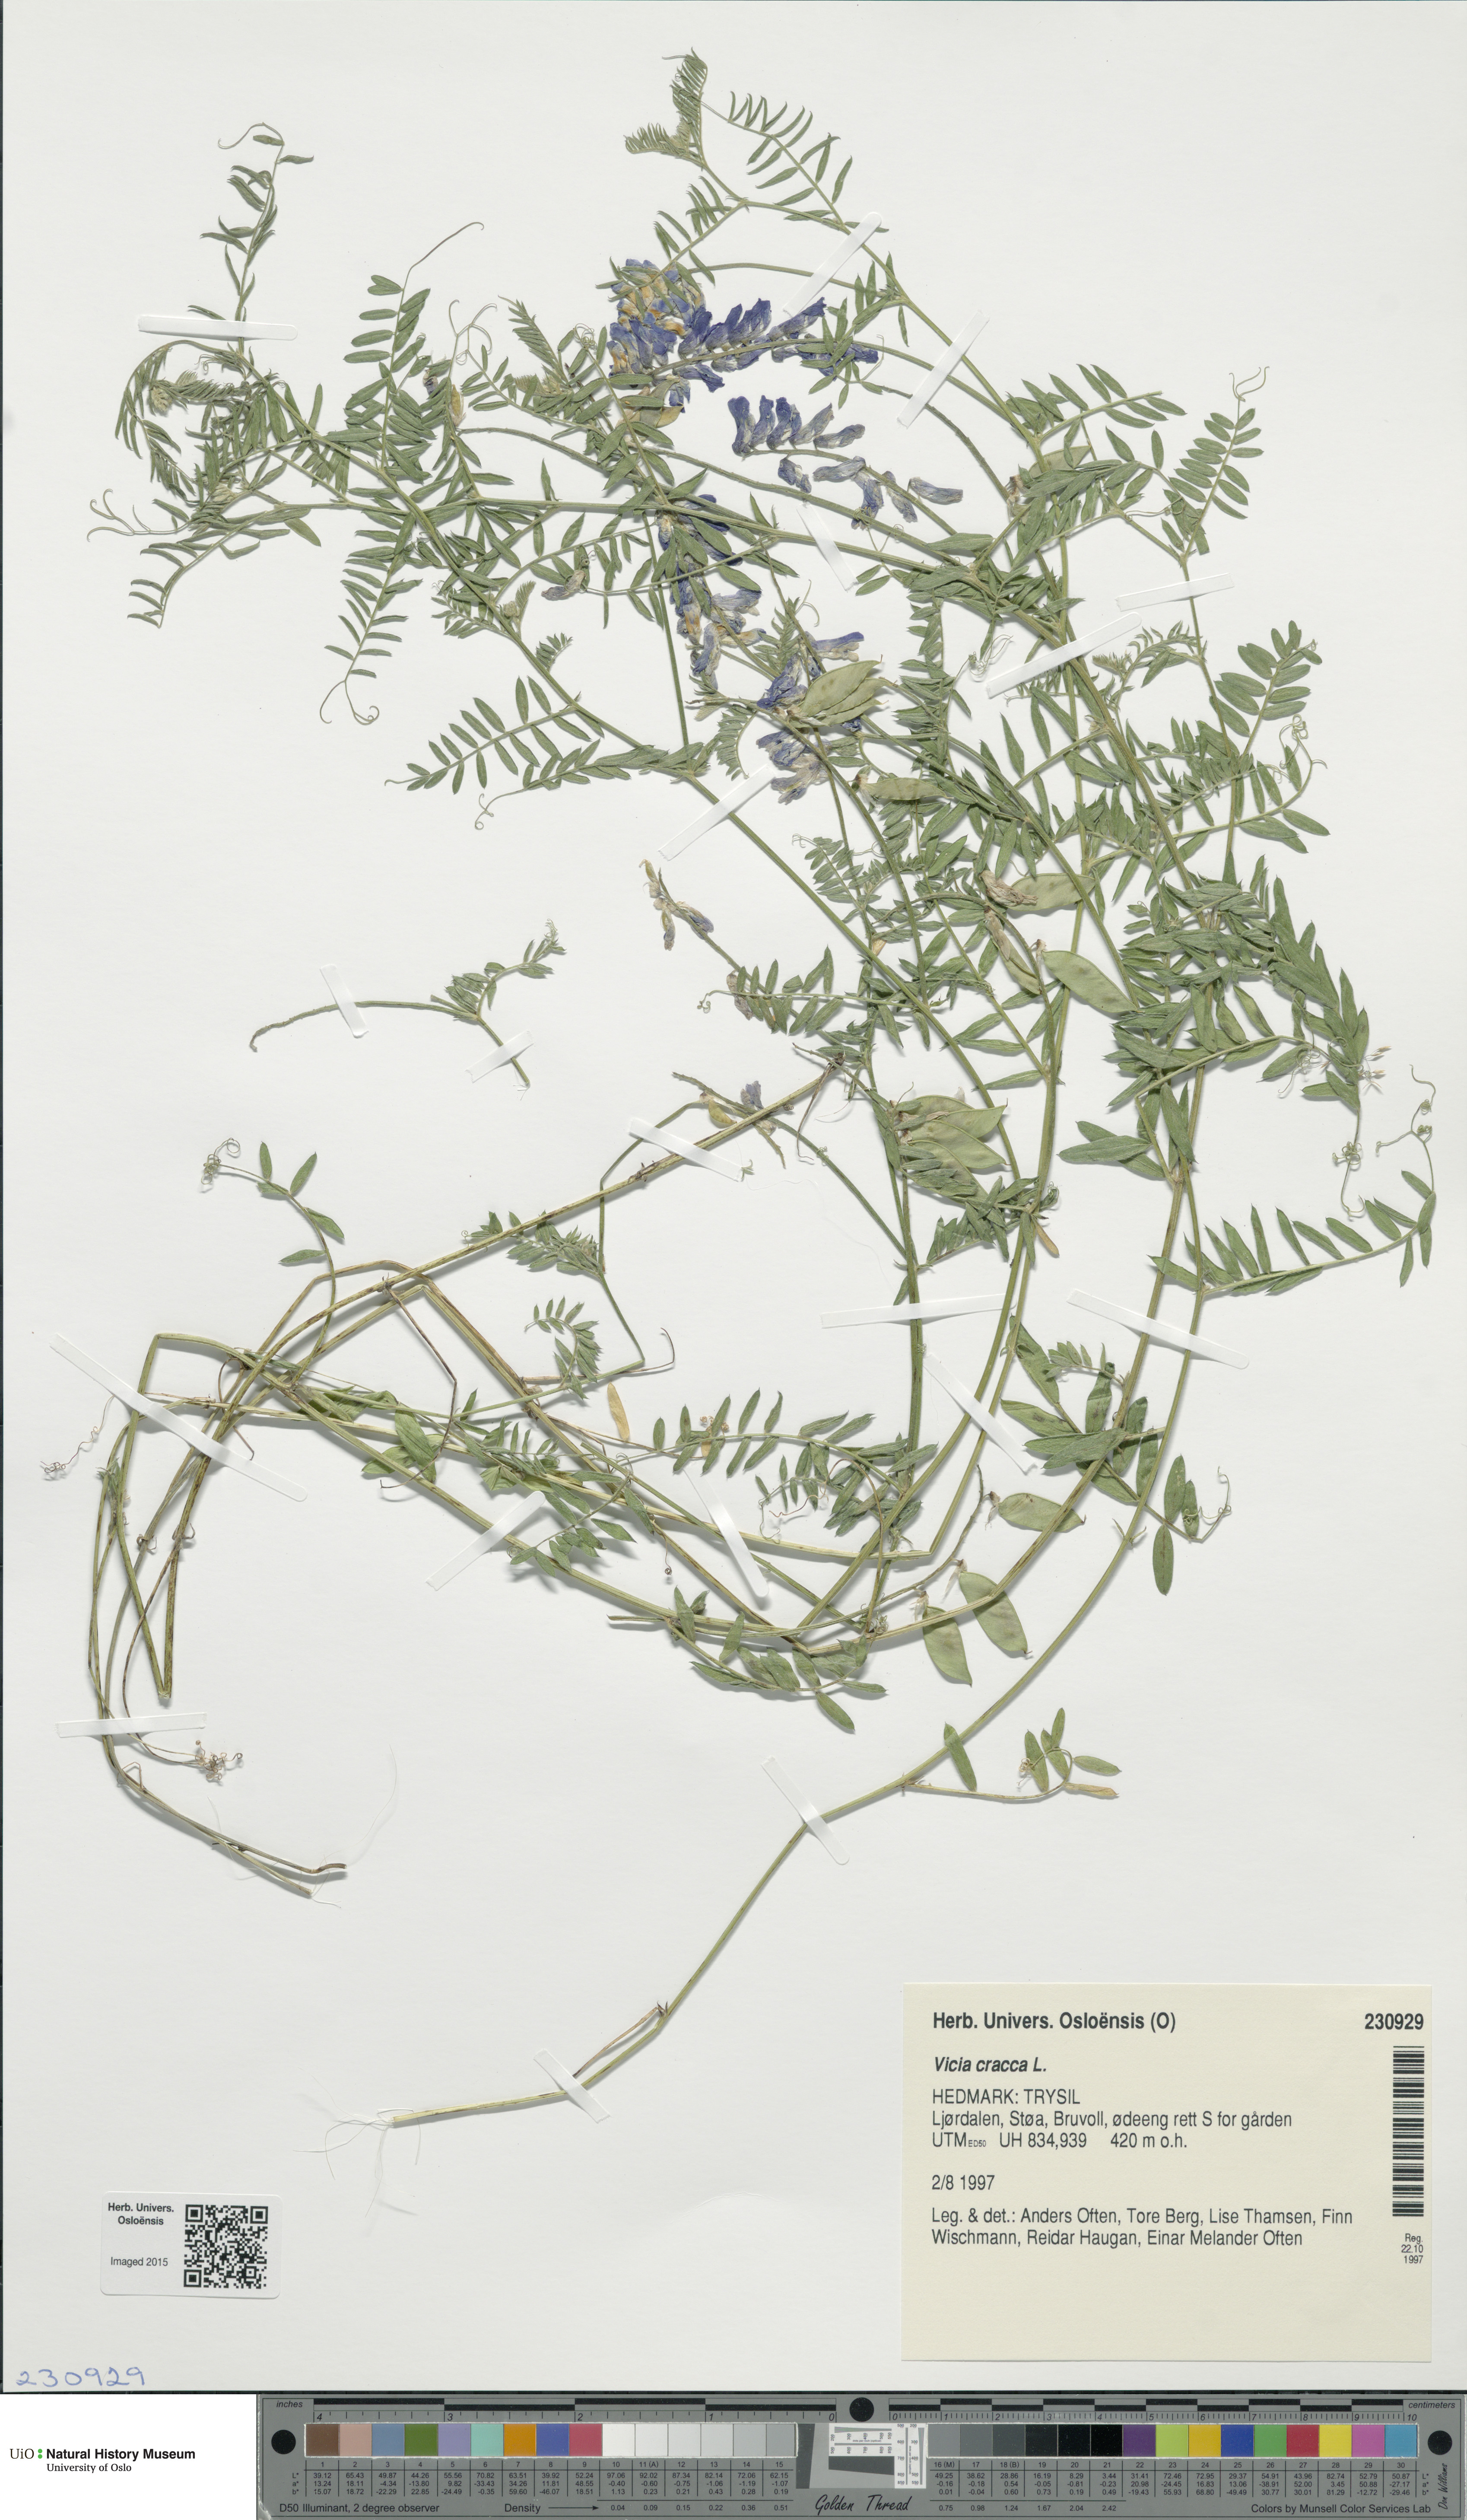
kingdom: Plantae
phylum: Tracheophyta
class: Magnoliopsida
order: Fabales
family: Fabaceae
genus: Vicia
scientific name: Vicia cracca
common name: Bird vetch
